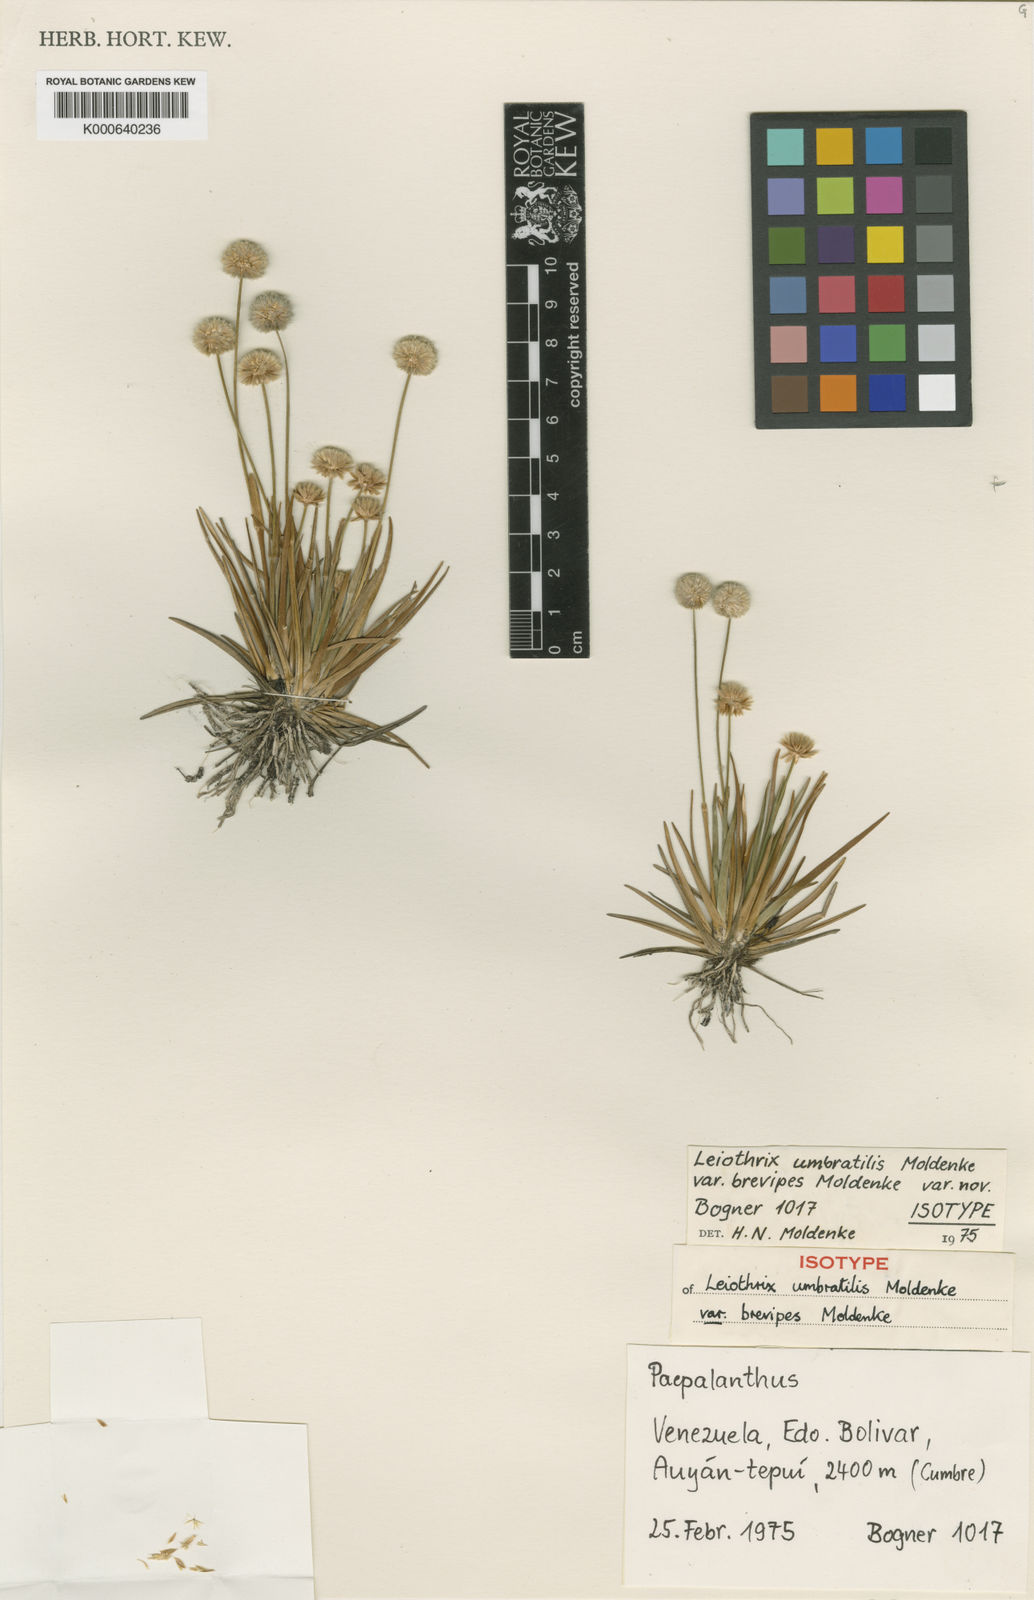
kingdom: Plantae
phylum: Tracheophyta
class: Liliopsida
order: Poales
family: Eriocaulaceae
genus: Leiothrix
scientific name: Leiothrix flavescens
